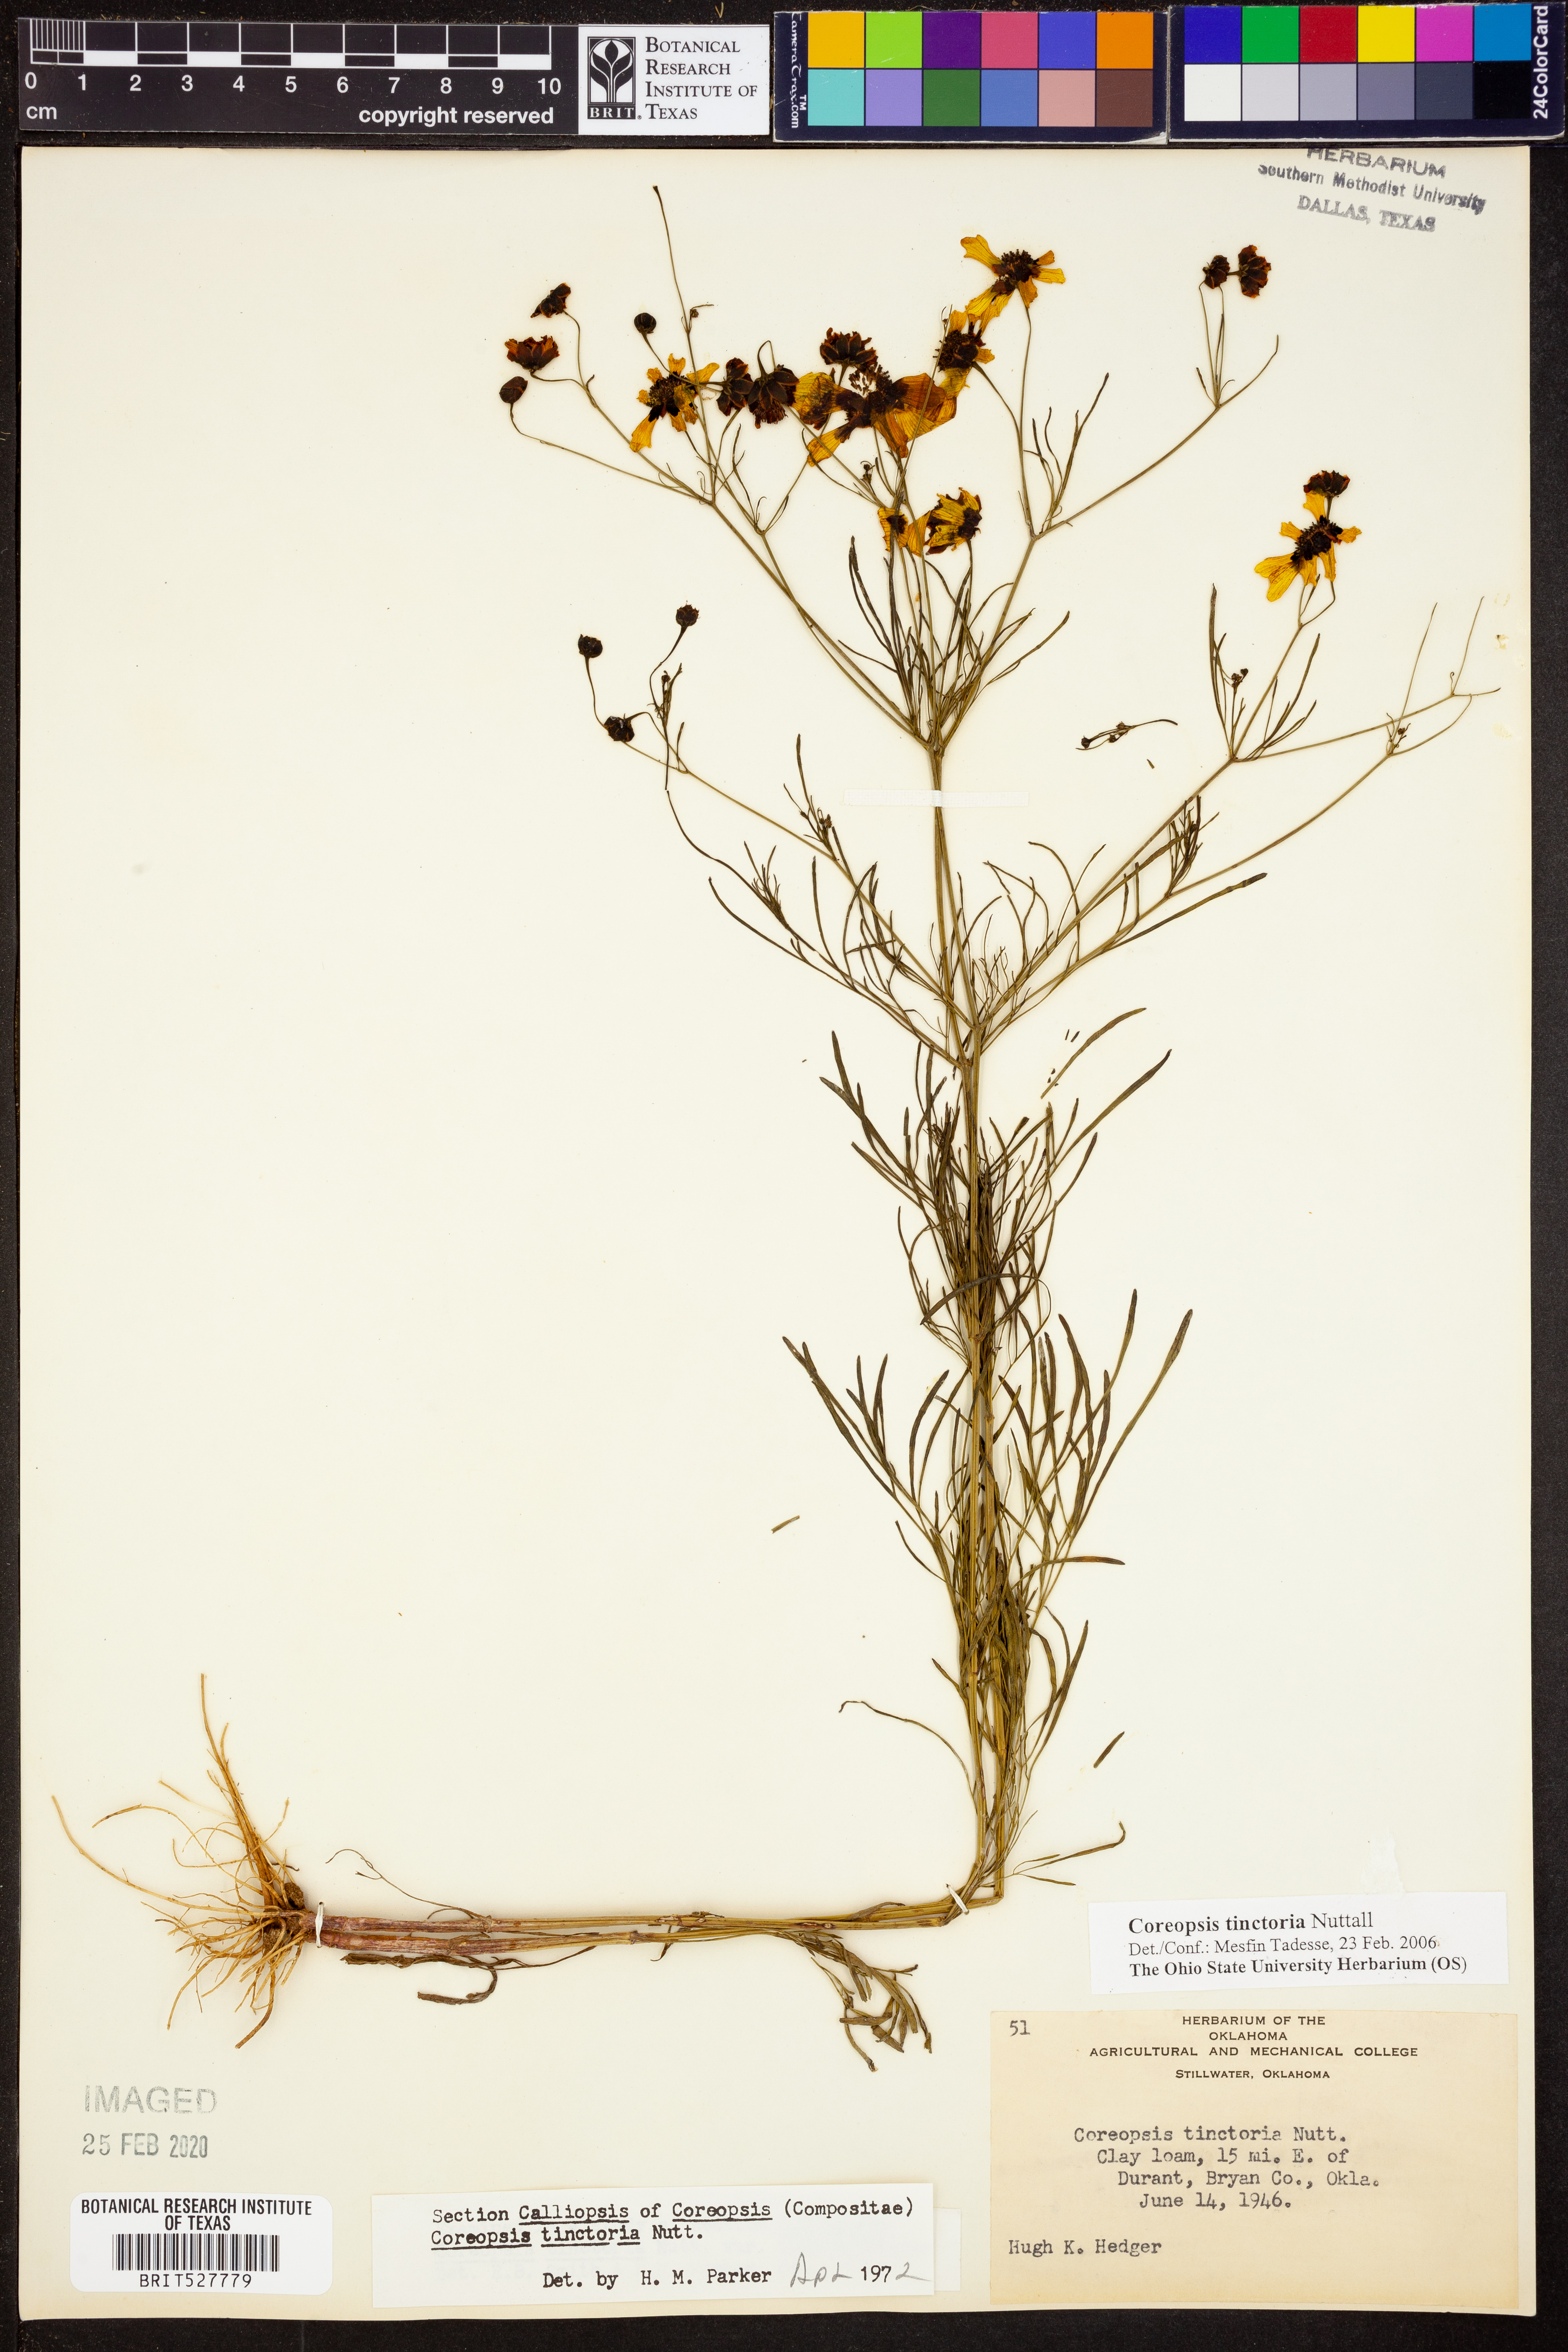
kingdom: Plantae
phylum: Tracheophyta
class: Magnoliopsida
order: Asterales
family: Asteraceae
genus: Coreopsis
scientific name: Coreopsis tinctoria
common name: Garden tickseed
